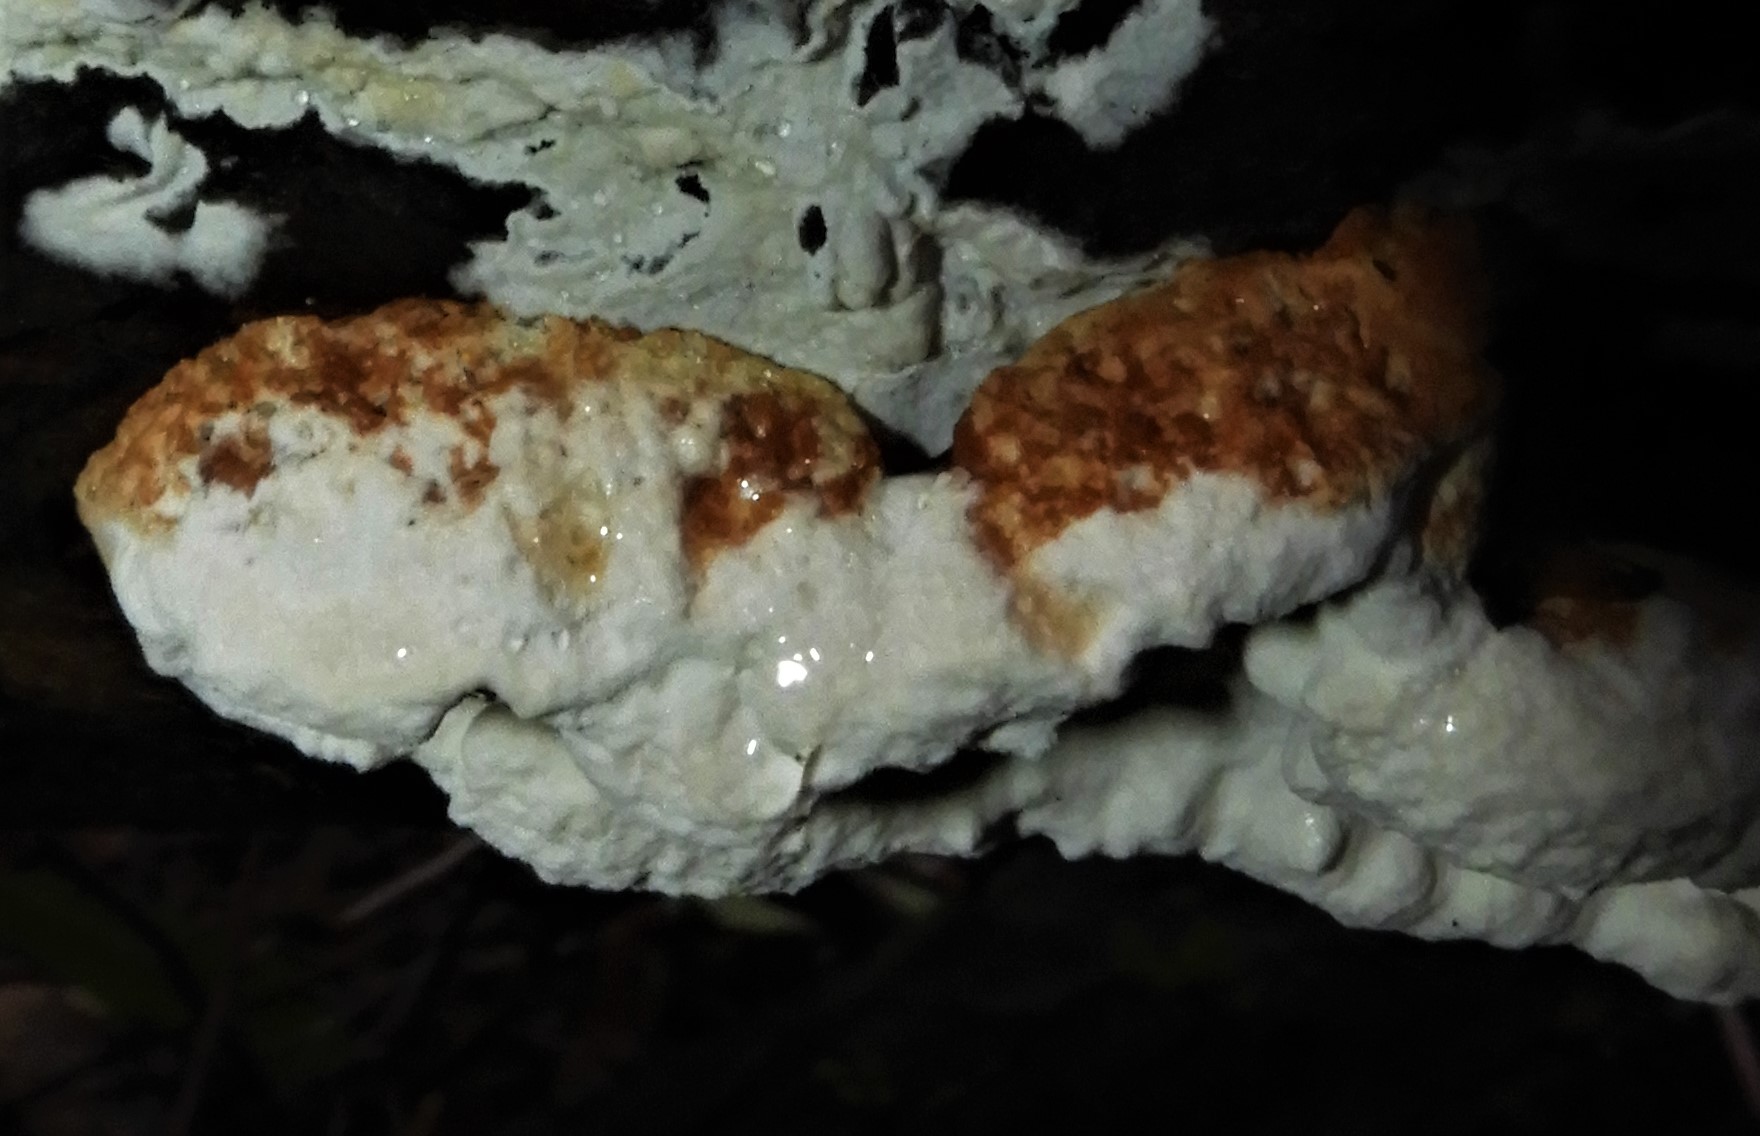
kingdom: Fungi
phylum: Basidiomycota
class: Agaricomycetes
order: Polyporales
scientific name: Polyporales
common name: poresvampordenen
